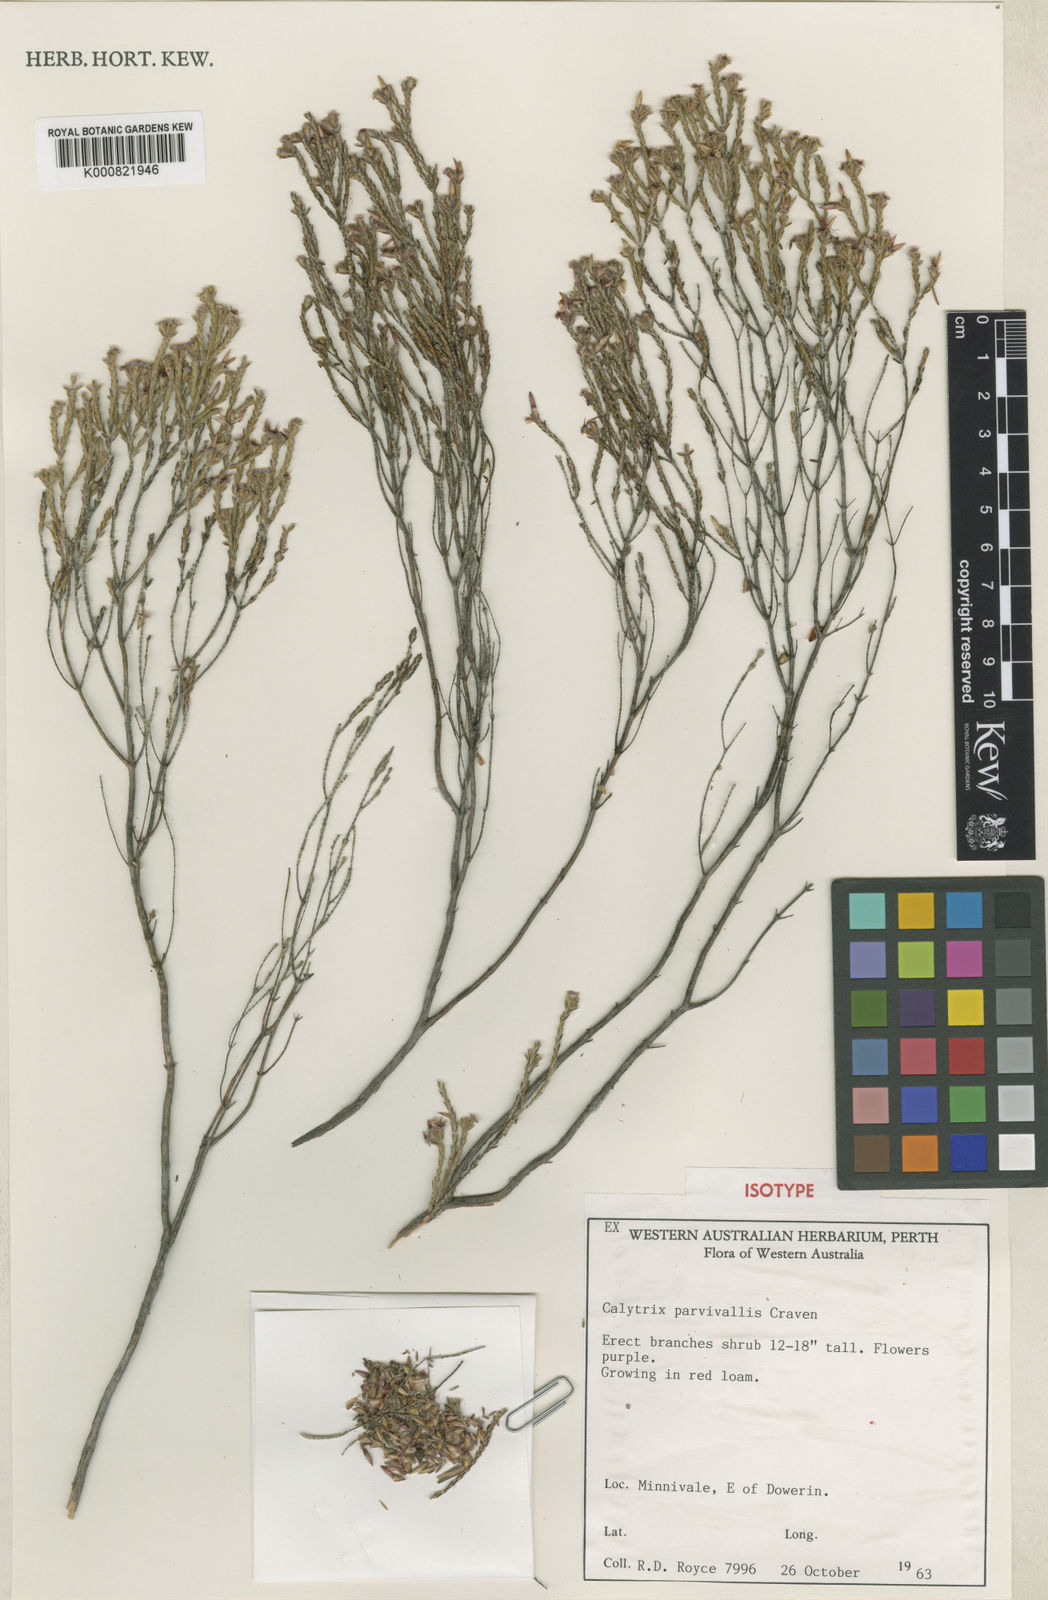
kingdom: Plantae
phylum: Tracheophyta
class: Magnoliopsida
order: Myrtales
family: Myrtaceae
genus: Calytrix
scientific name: Calytrix parvivallis
